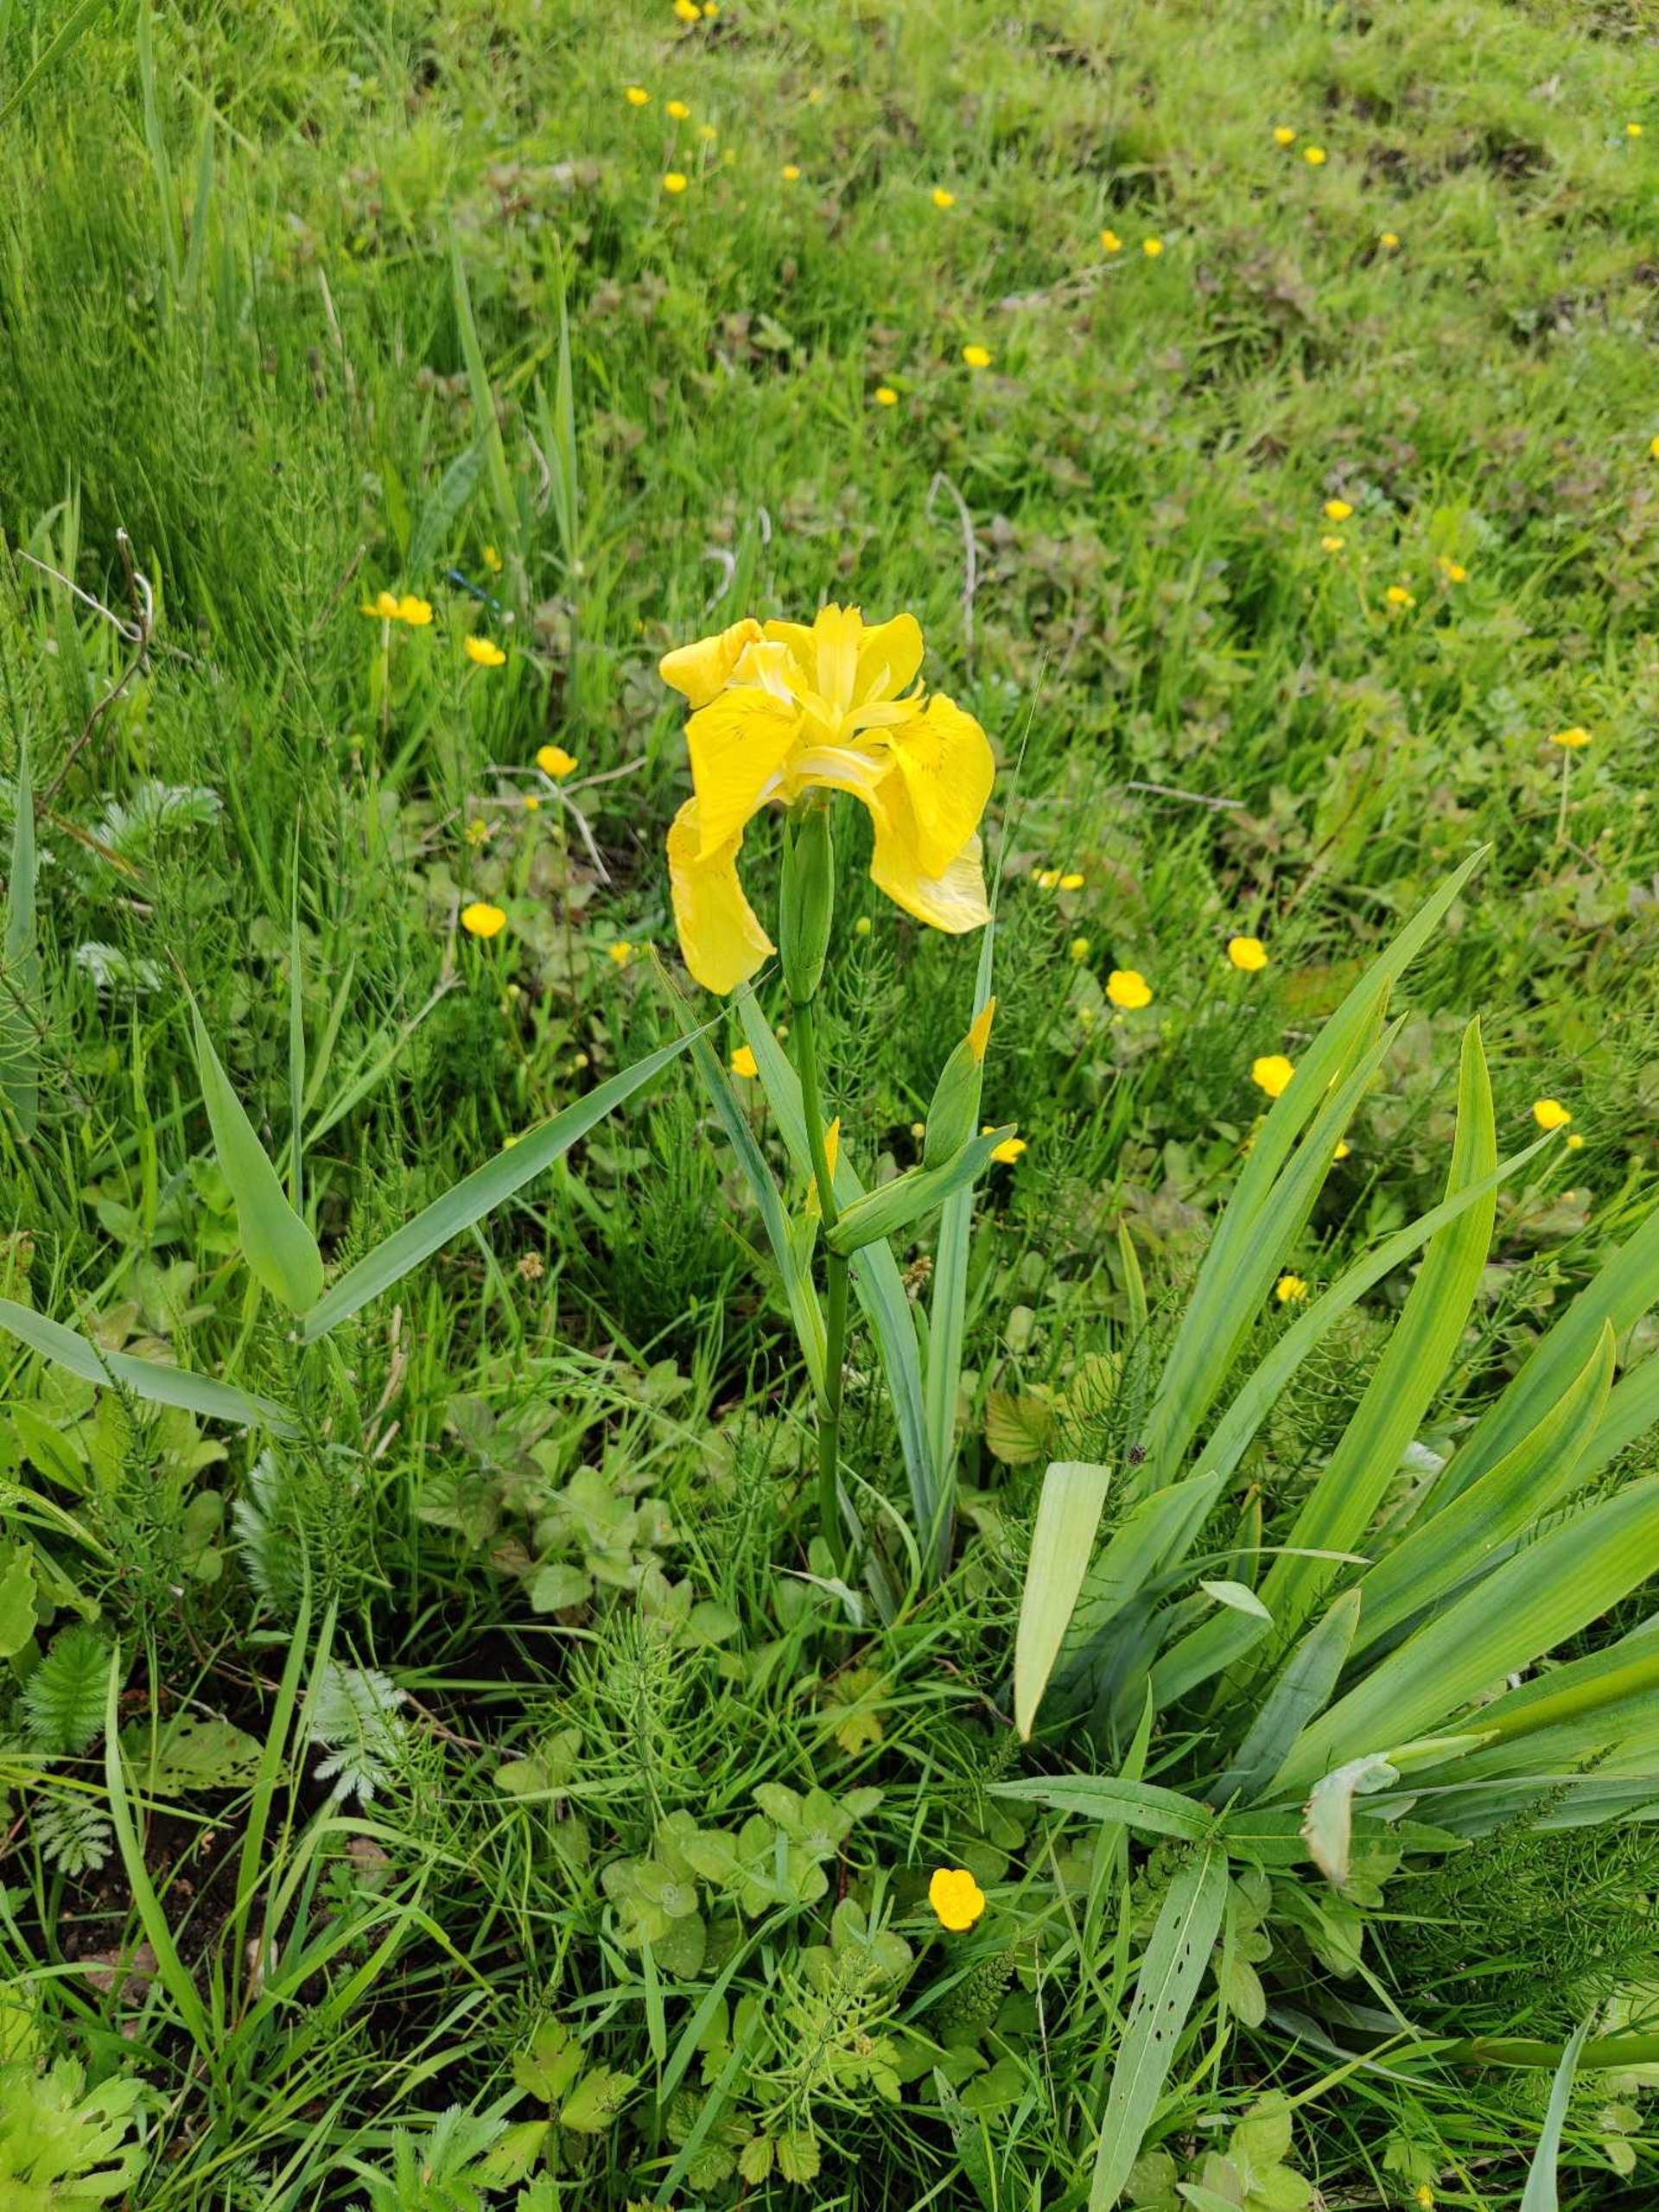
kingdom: Plantae
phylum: Tracheophyta
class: Liliopsida
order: Asparagales
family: Iridaceae
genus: Iris
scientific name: Iris pseudacorus
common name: Gul iris
